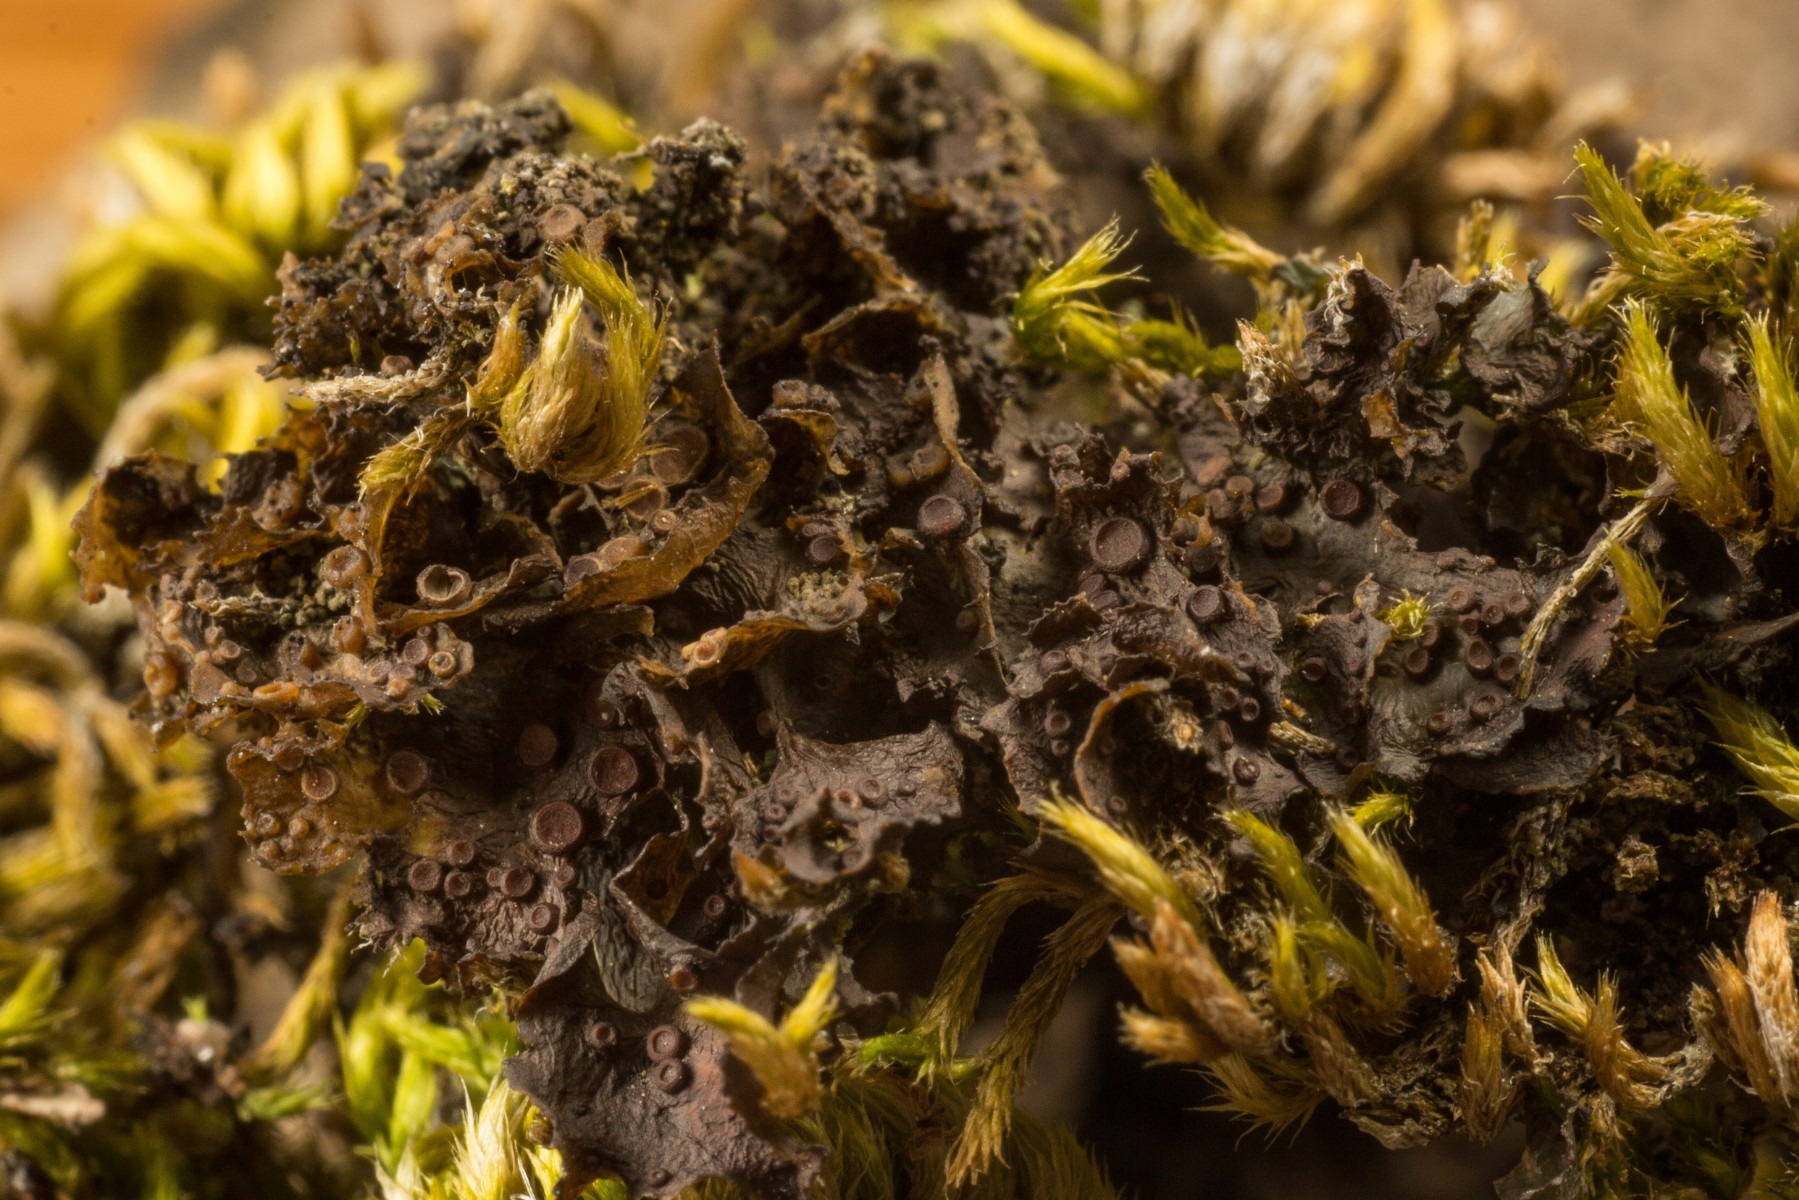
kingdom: Fungi
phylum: Ascomycota
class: Lecanoromycetes
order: Peltigerales
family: Collemataceae
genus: Scytinium
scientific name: Scytinium gelatinosum
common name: gelé-hindelav
